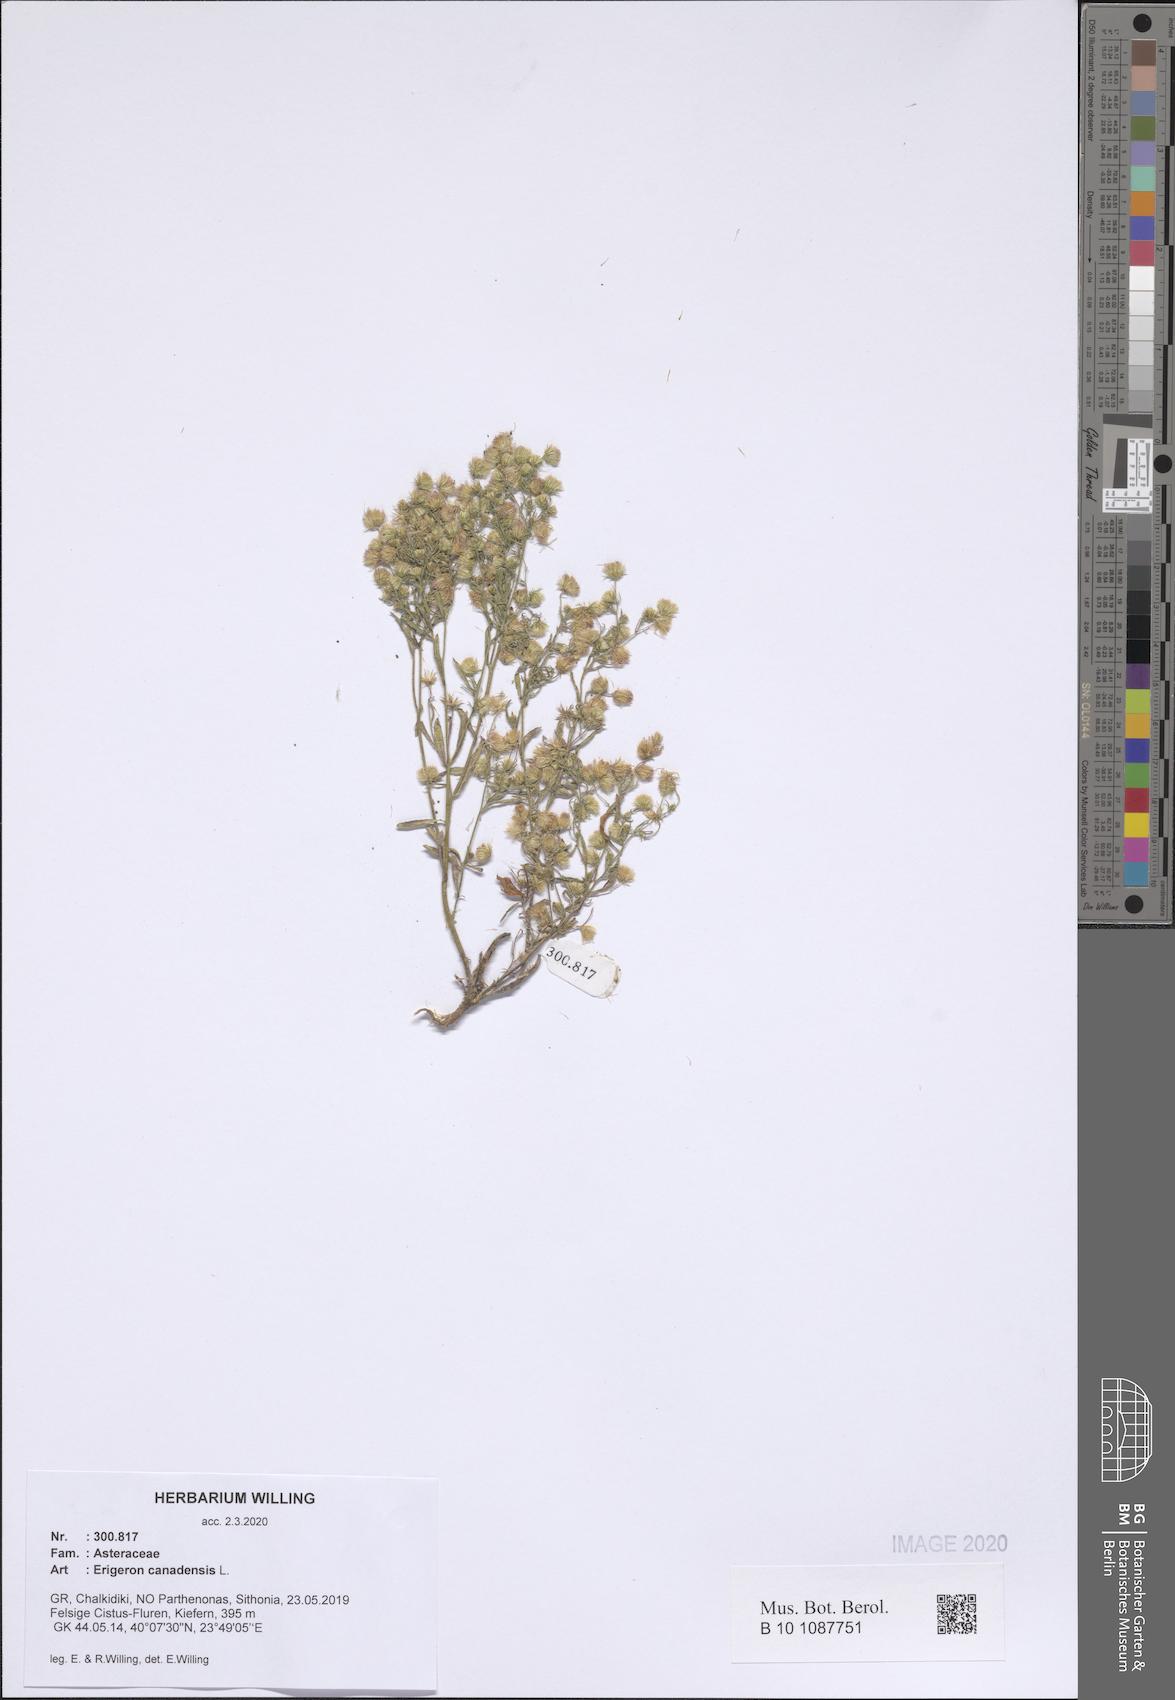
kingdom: Plantae
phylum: Tracheophyta
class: Magnoliopsida
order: Asterales
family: Asteraceae
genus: Erigeron
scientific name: Erigeron canadensis
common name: Canadian fleabane
